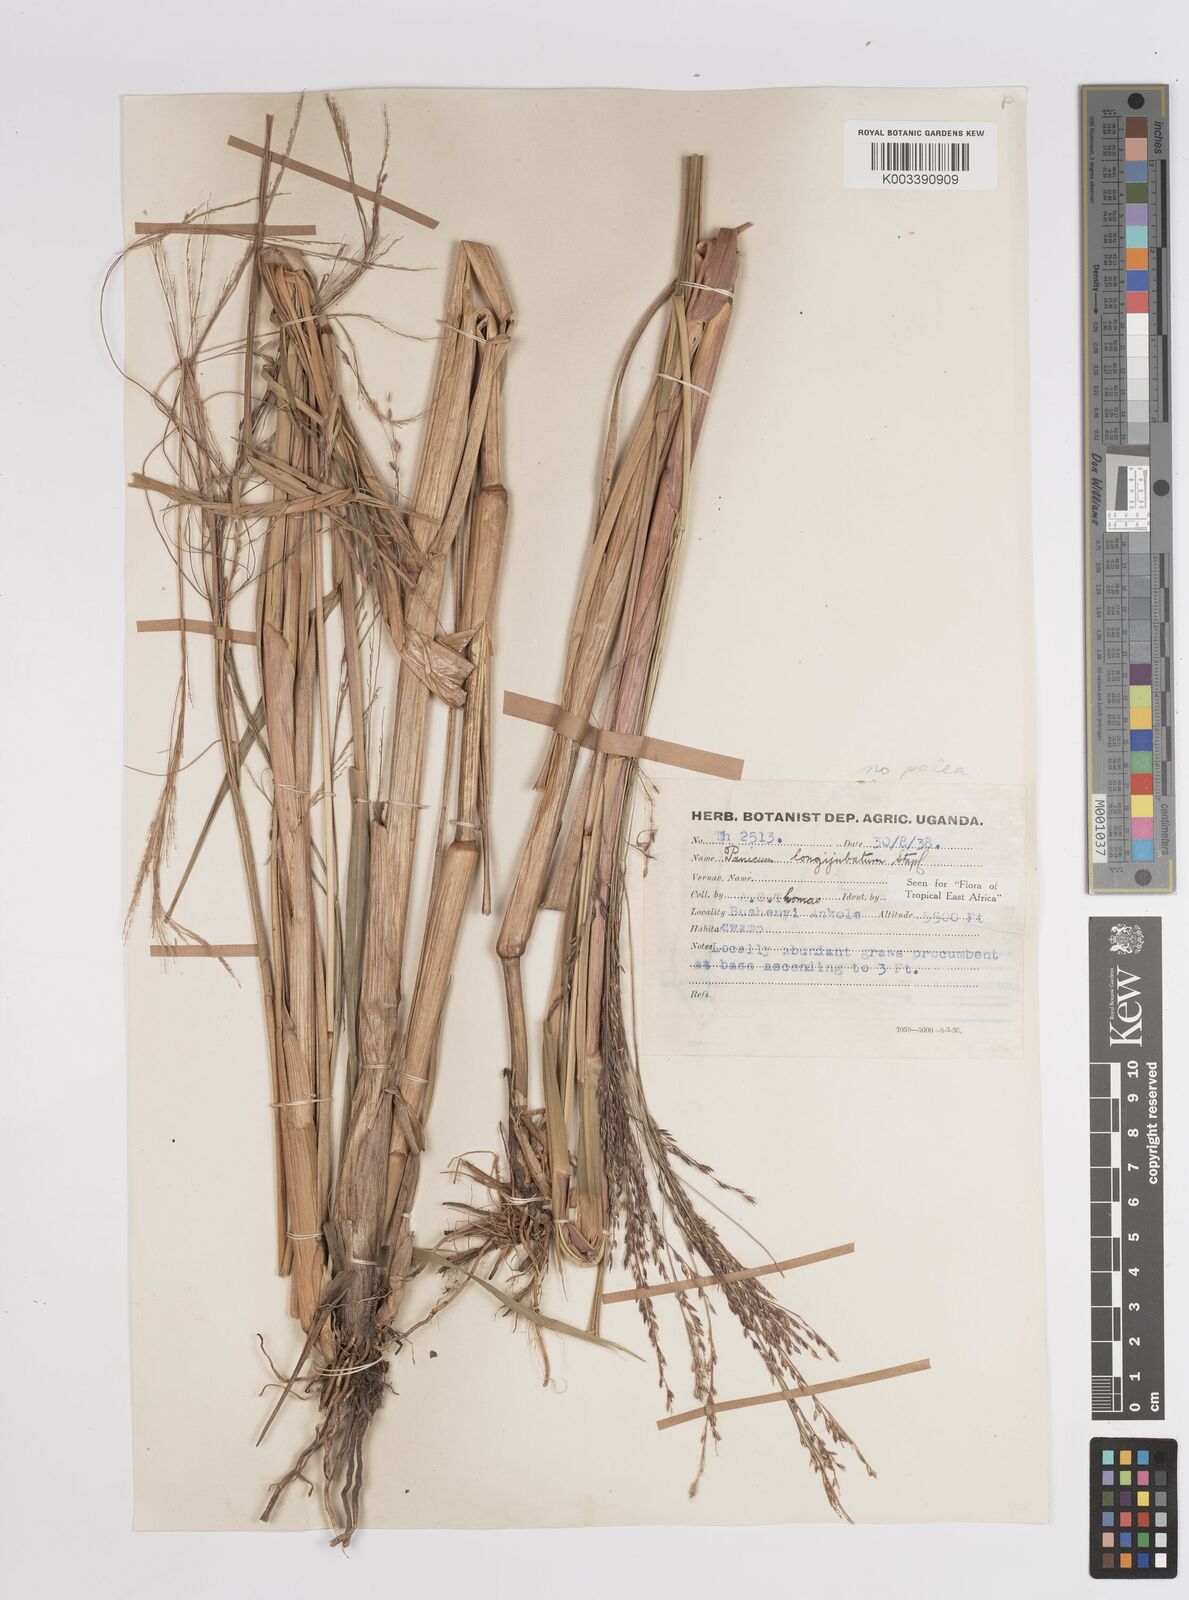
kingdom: Plantae
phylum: Tracheophyta
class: Liliopsida
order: Poales
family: Poaceae
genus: Panicum
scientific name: Panicum subalbidum
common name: Elbow buffalo grass
